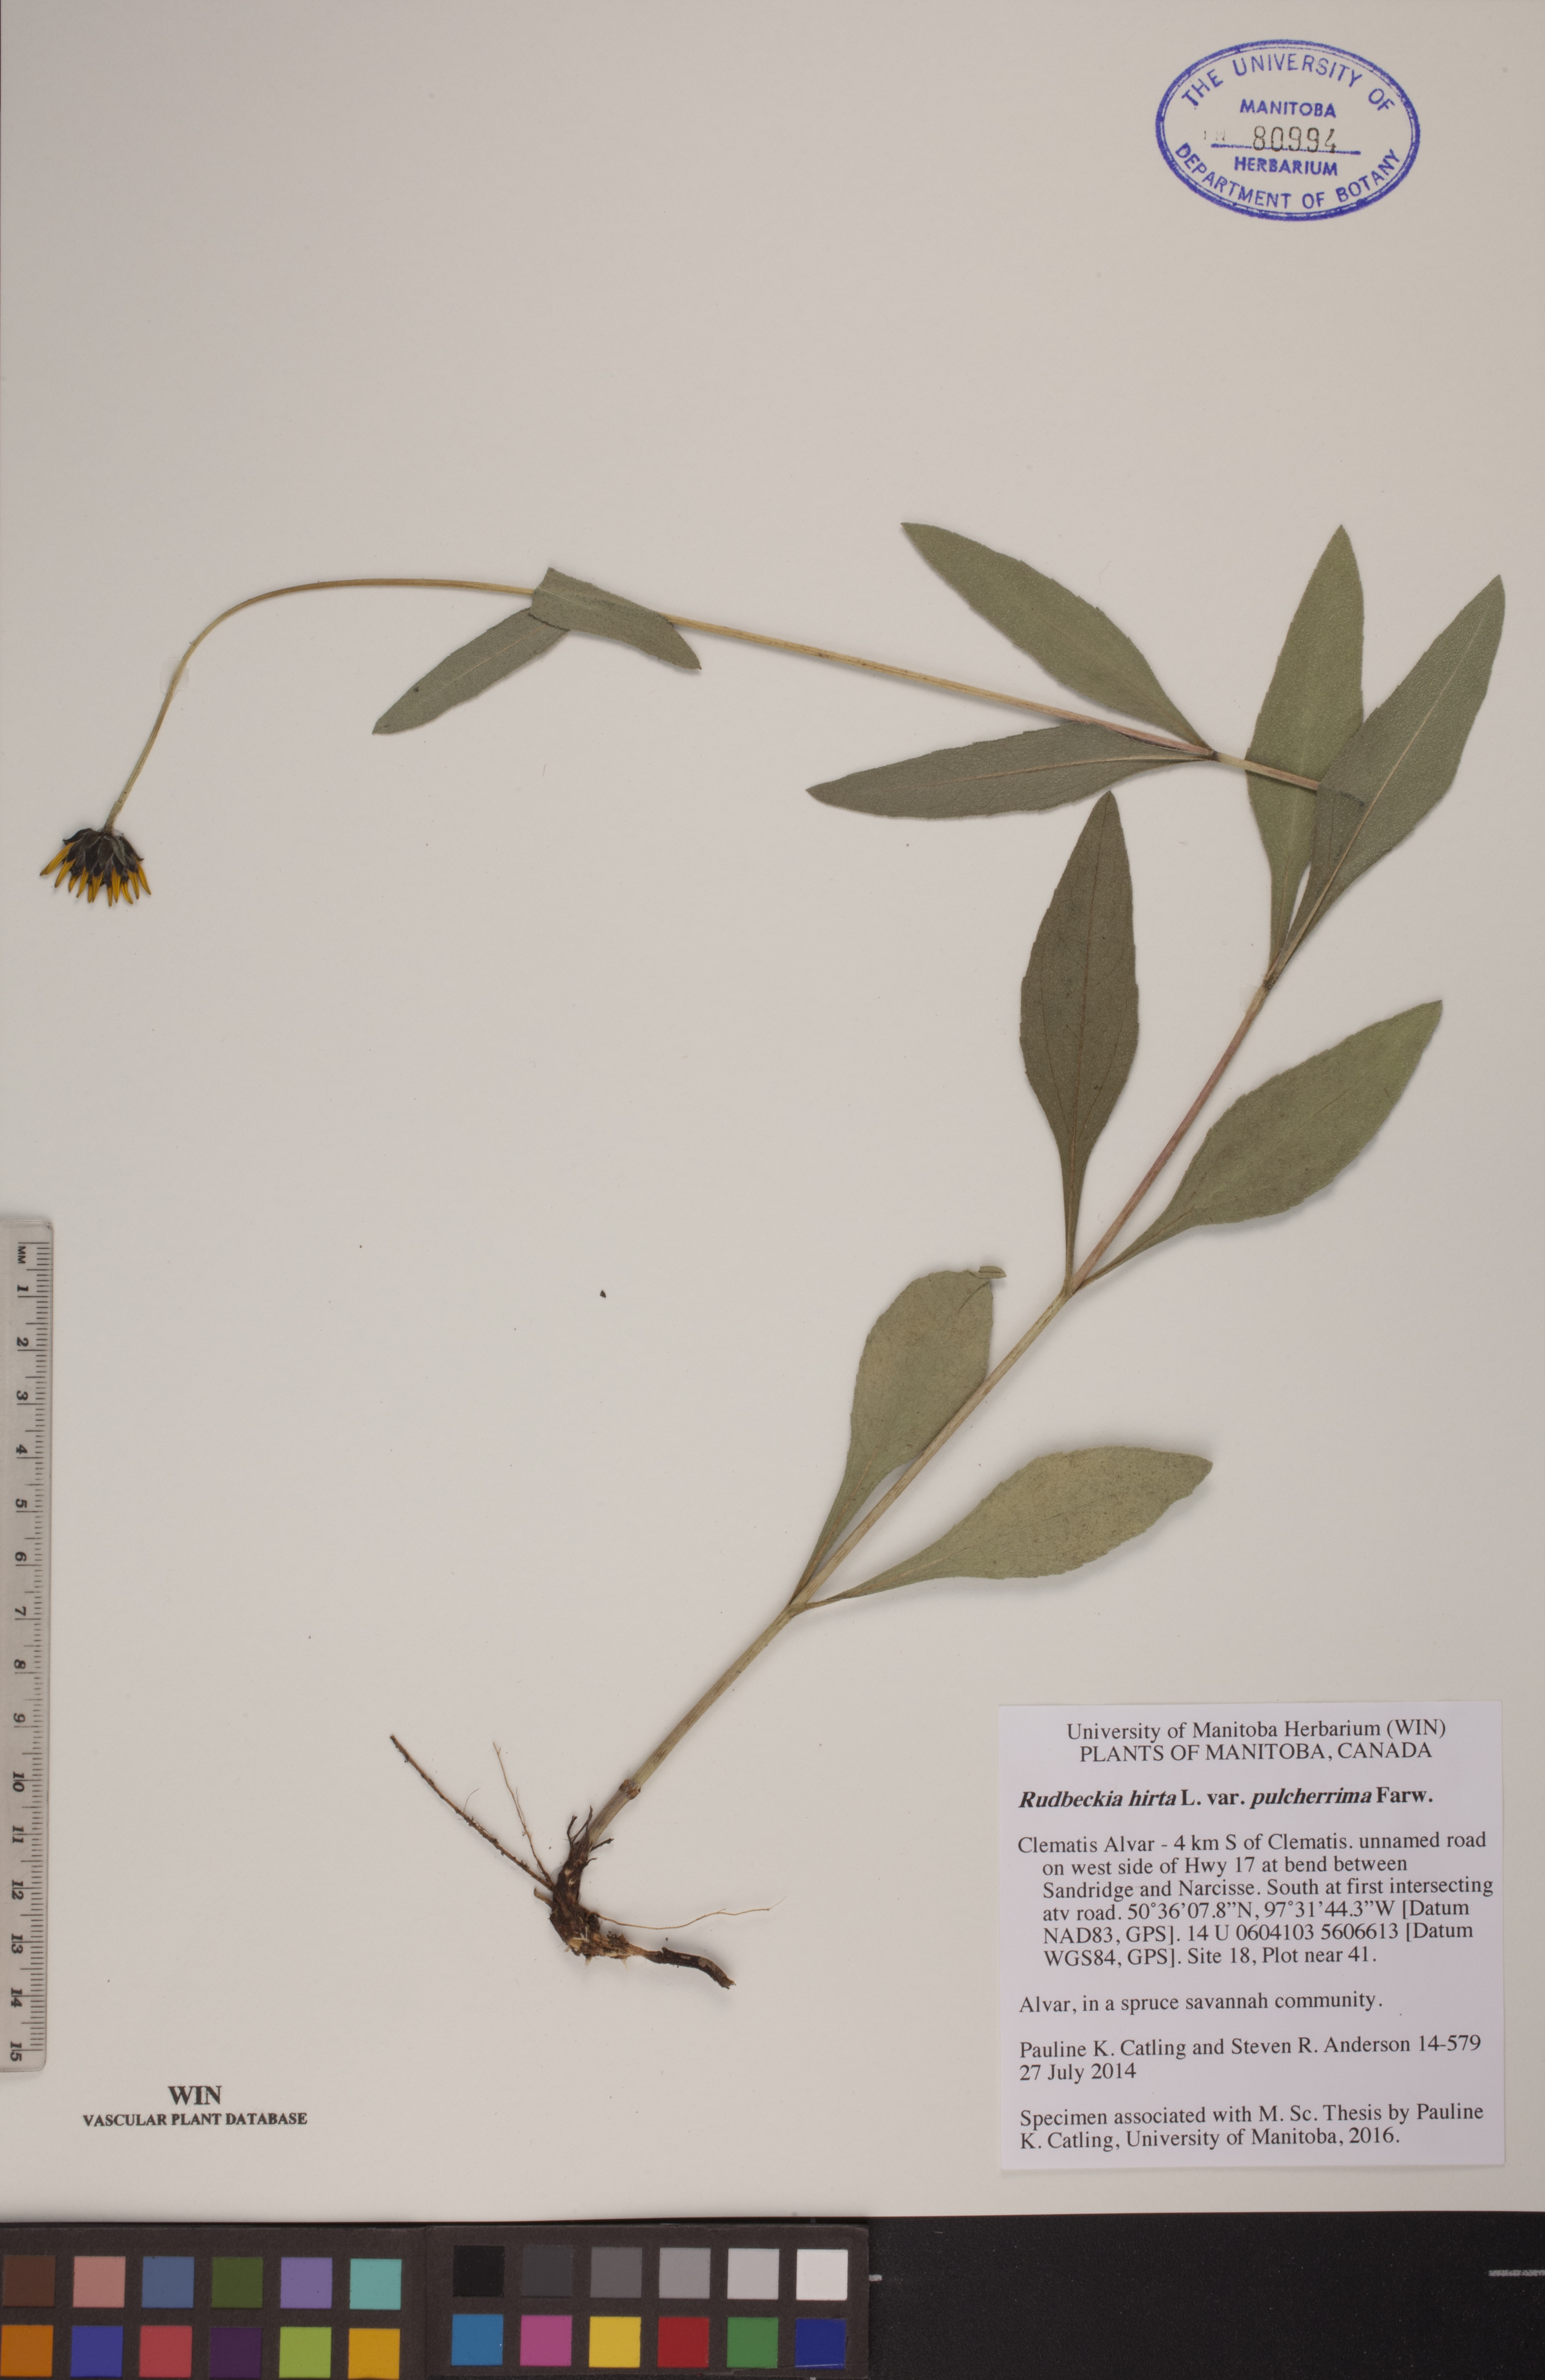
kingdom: Plantae
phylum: Tracheophyta
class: Magnoliopsida
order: Asterales
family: Asteraceae
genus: Rudbeckia
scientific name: Rudbeckia hirta
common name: Black-eyed-susan
